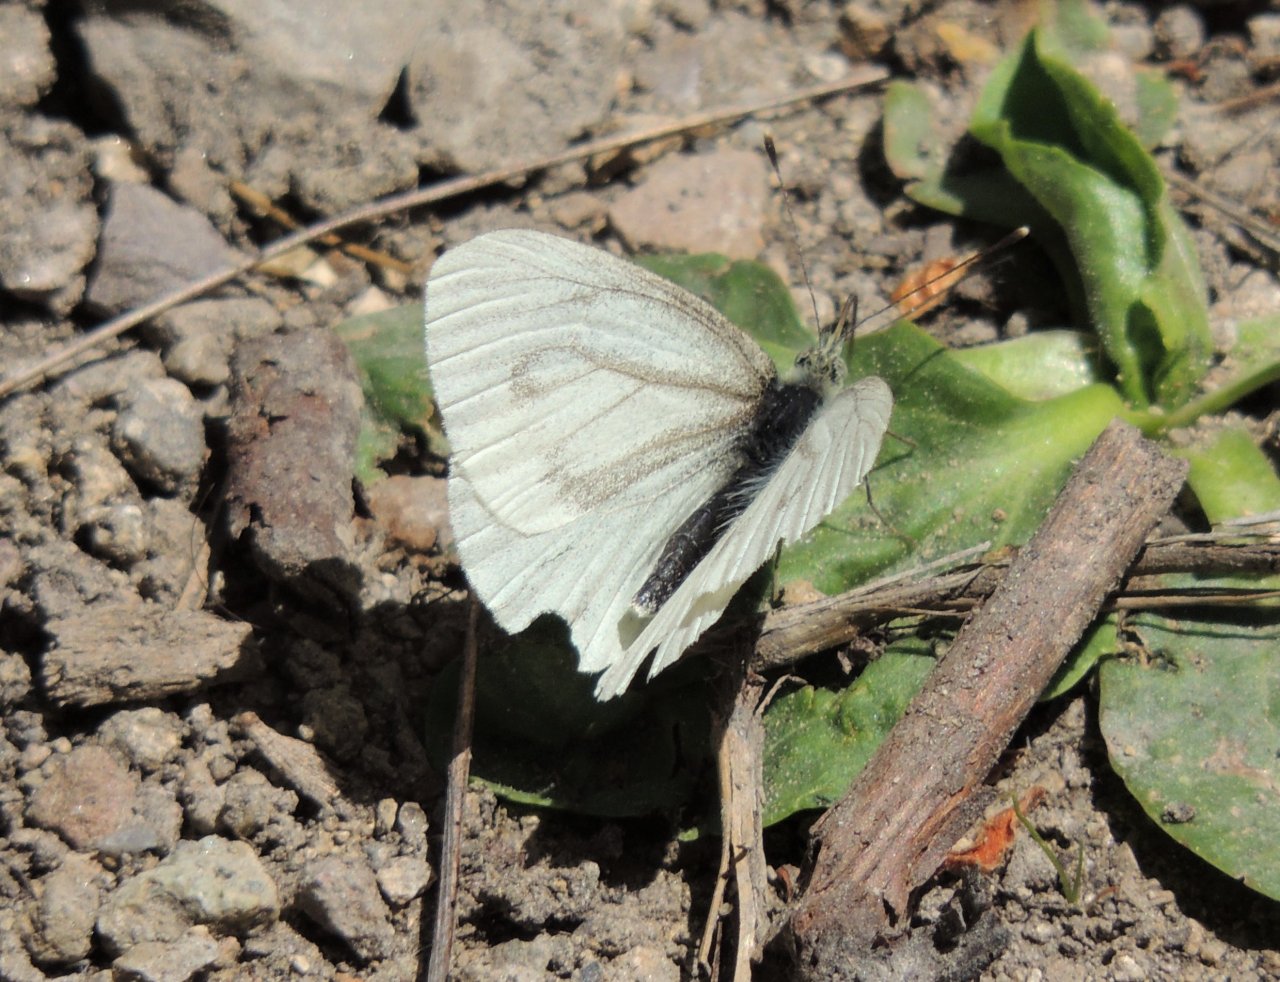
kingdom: Animalia
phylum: Arthropoda
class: Insecta
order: Lepidoptera
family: Pieridae
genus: Pieris
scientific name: Pieris marginalis
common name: Margined White
